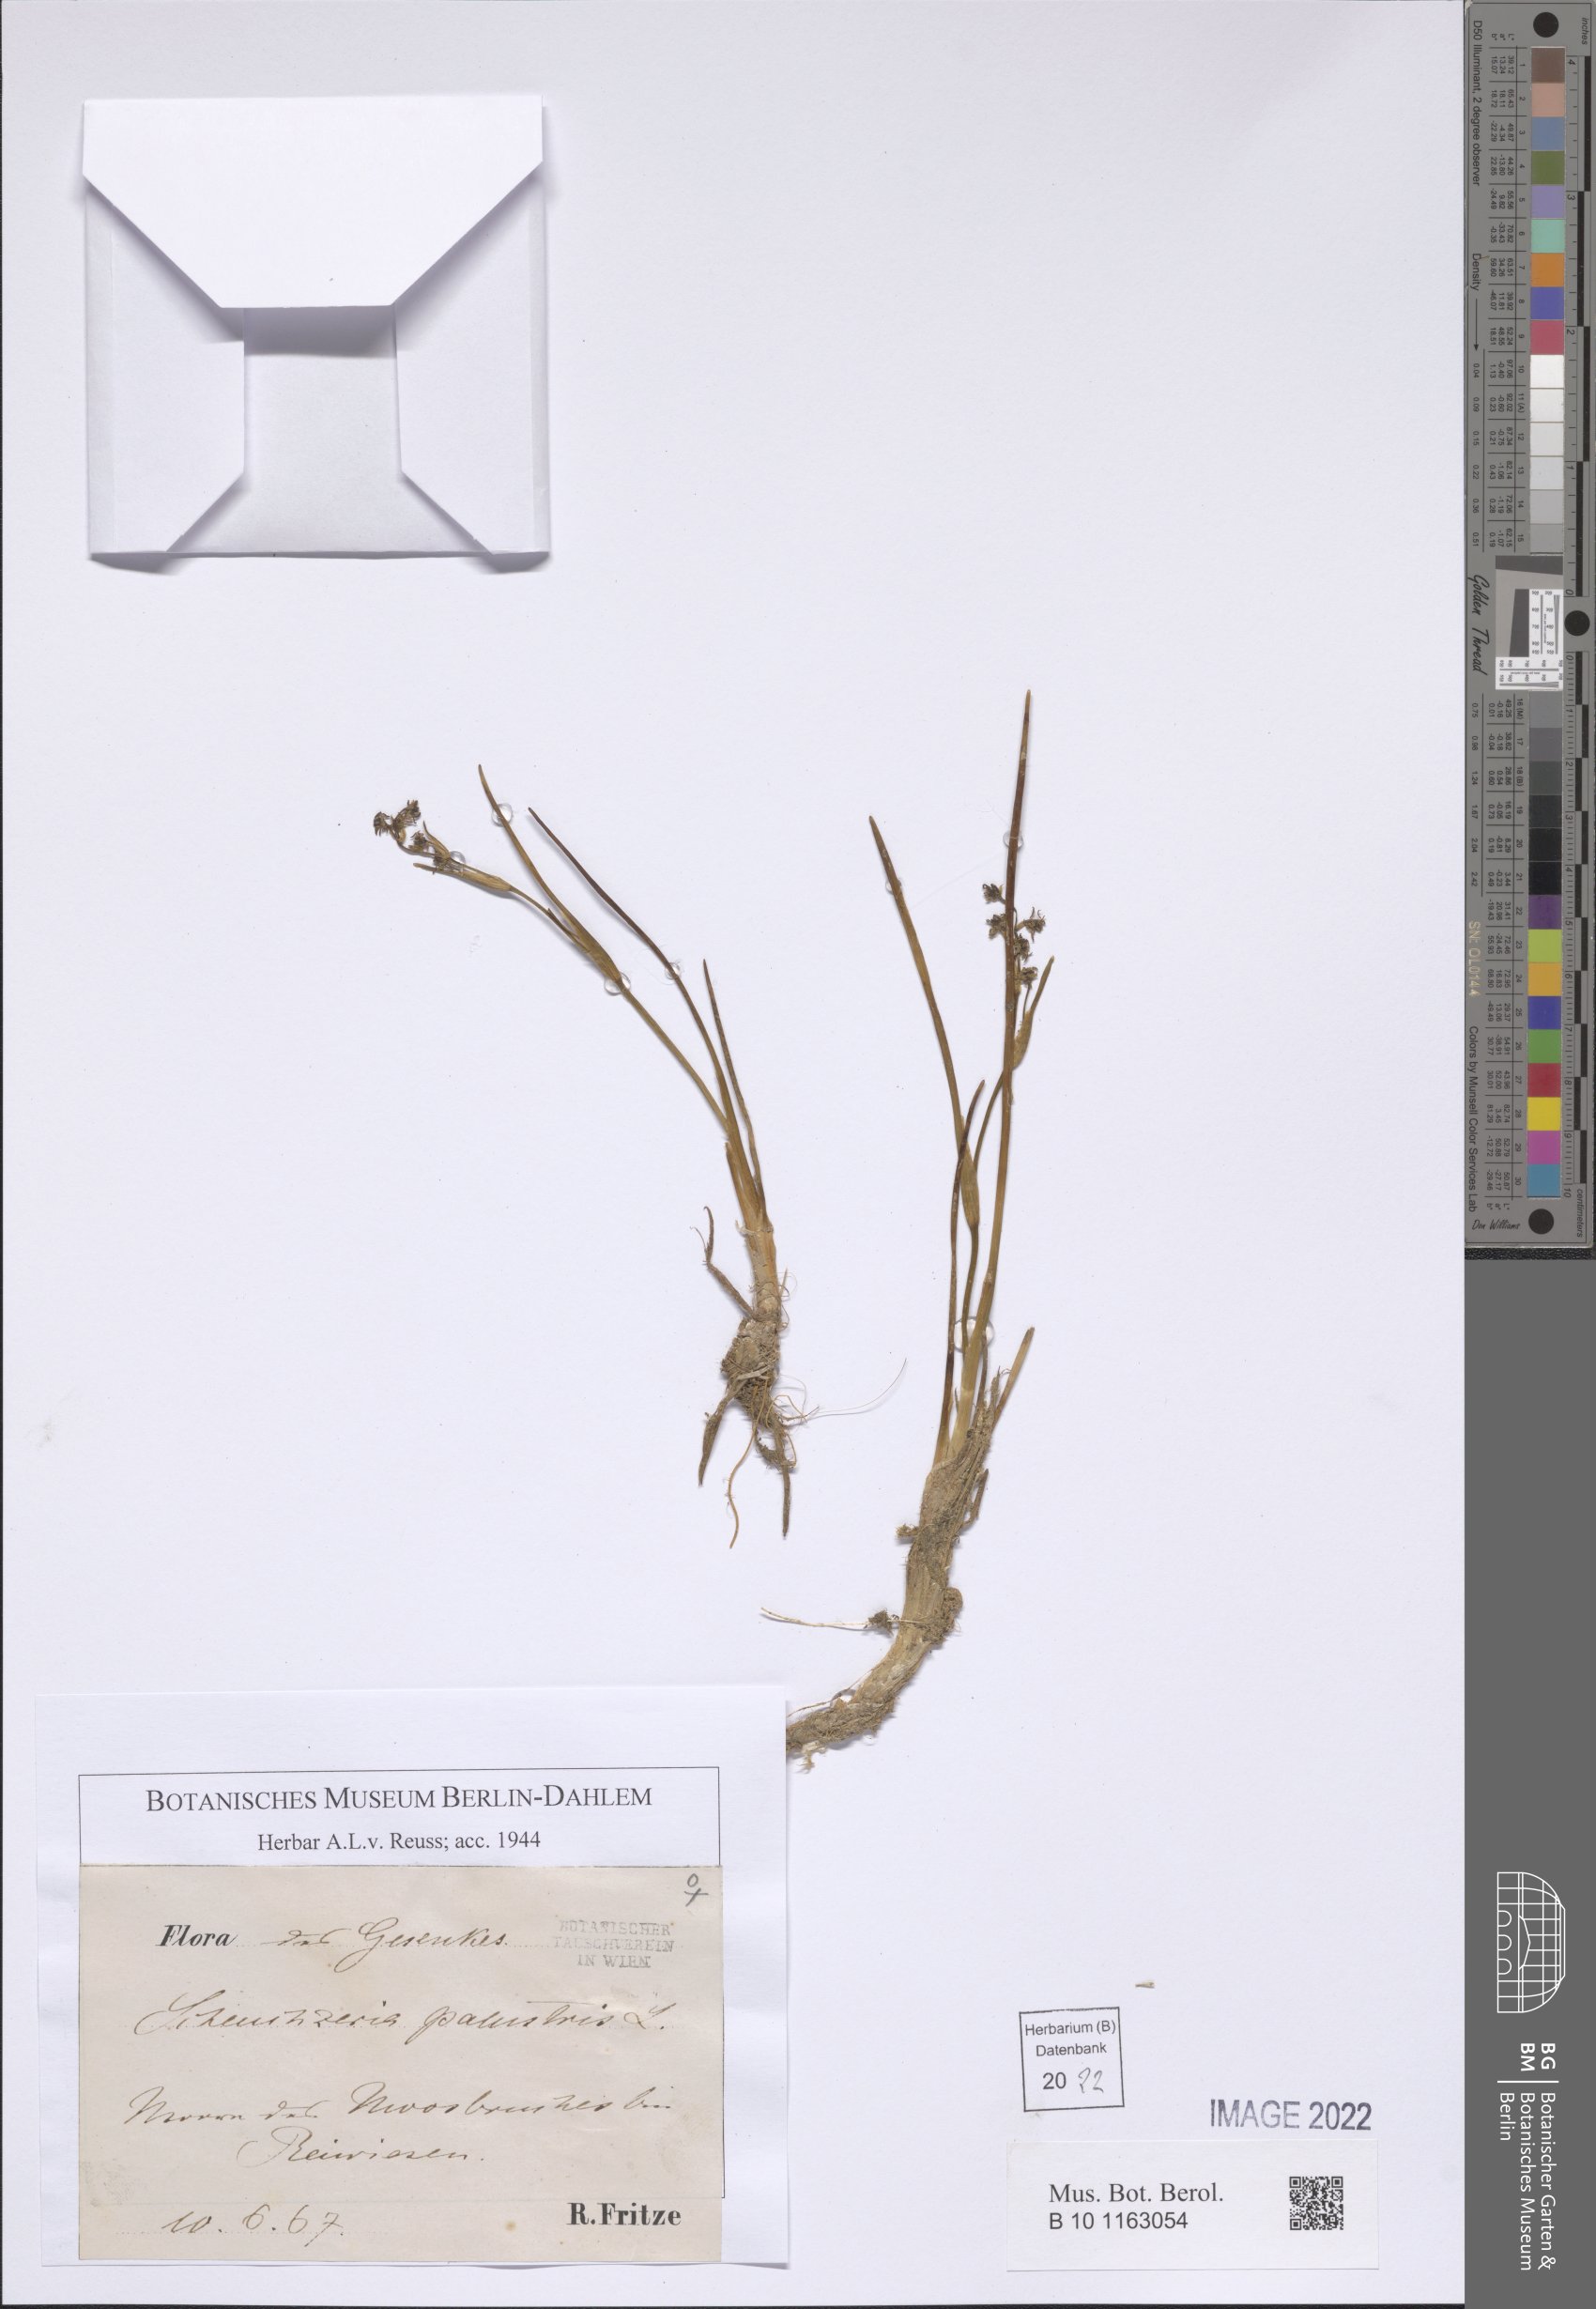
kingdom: Plantae
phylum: Tracheophyta
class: Liliopsida
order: Alismatales
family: Scheuchzeriaceae
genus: Scheuchzeria
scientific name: Scheuchzeria palustris
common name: Rannoch-rush
